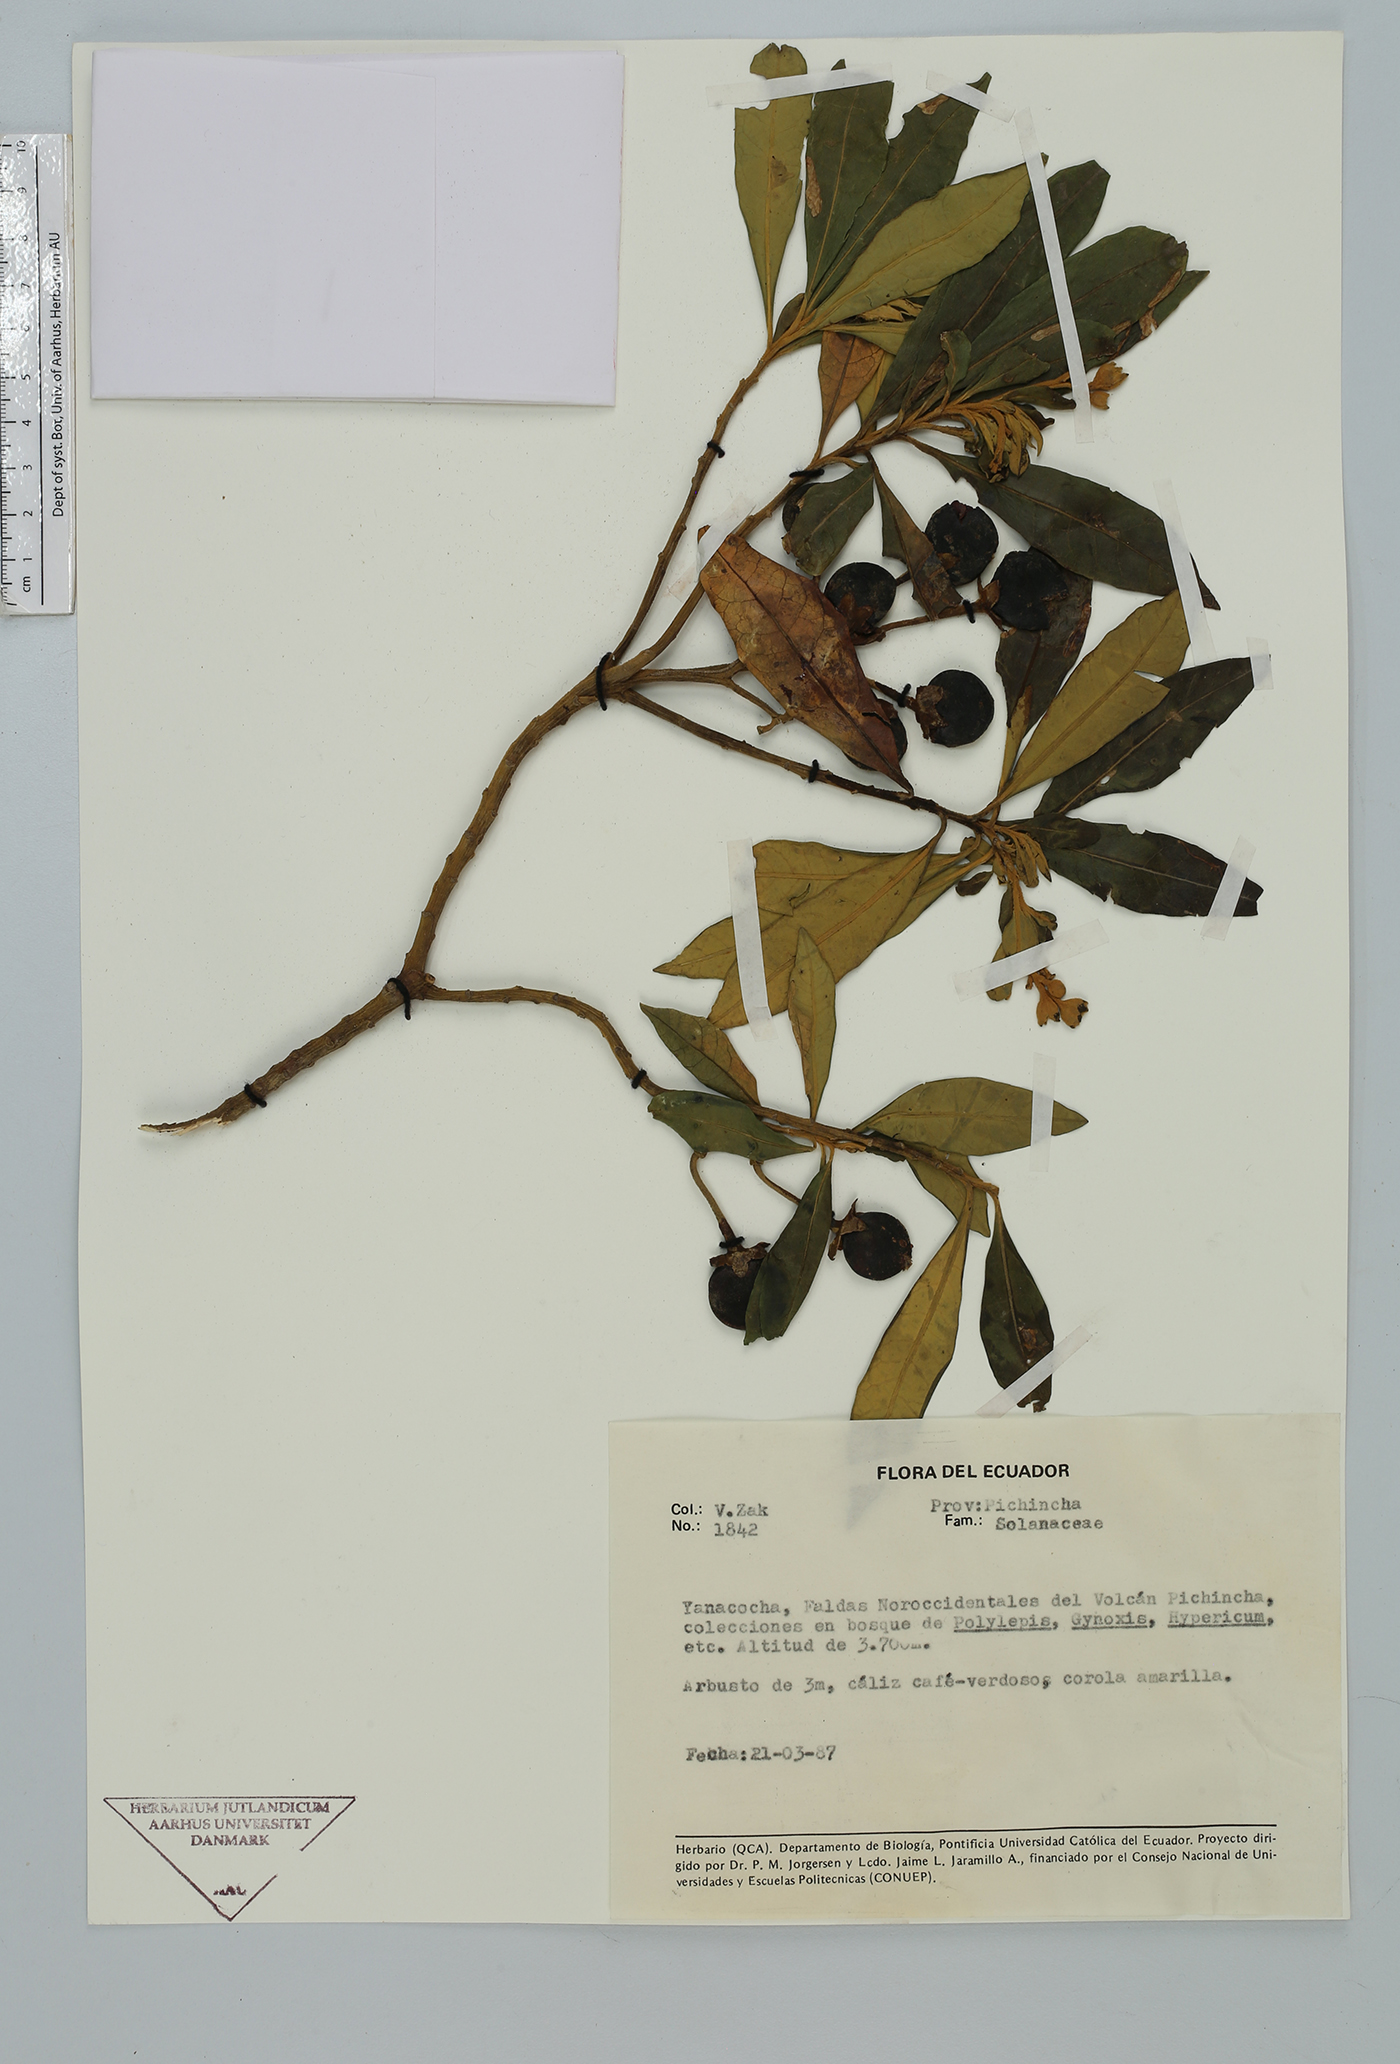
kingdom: Plantae
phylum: Tracheophyta
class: Magnoliopsida
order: Solanales
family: Solanaceae
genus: Solanum
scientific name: Solanum
